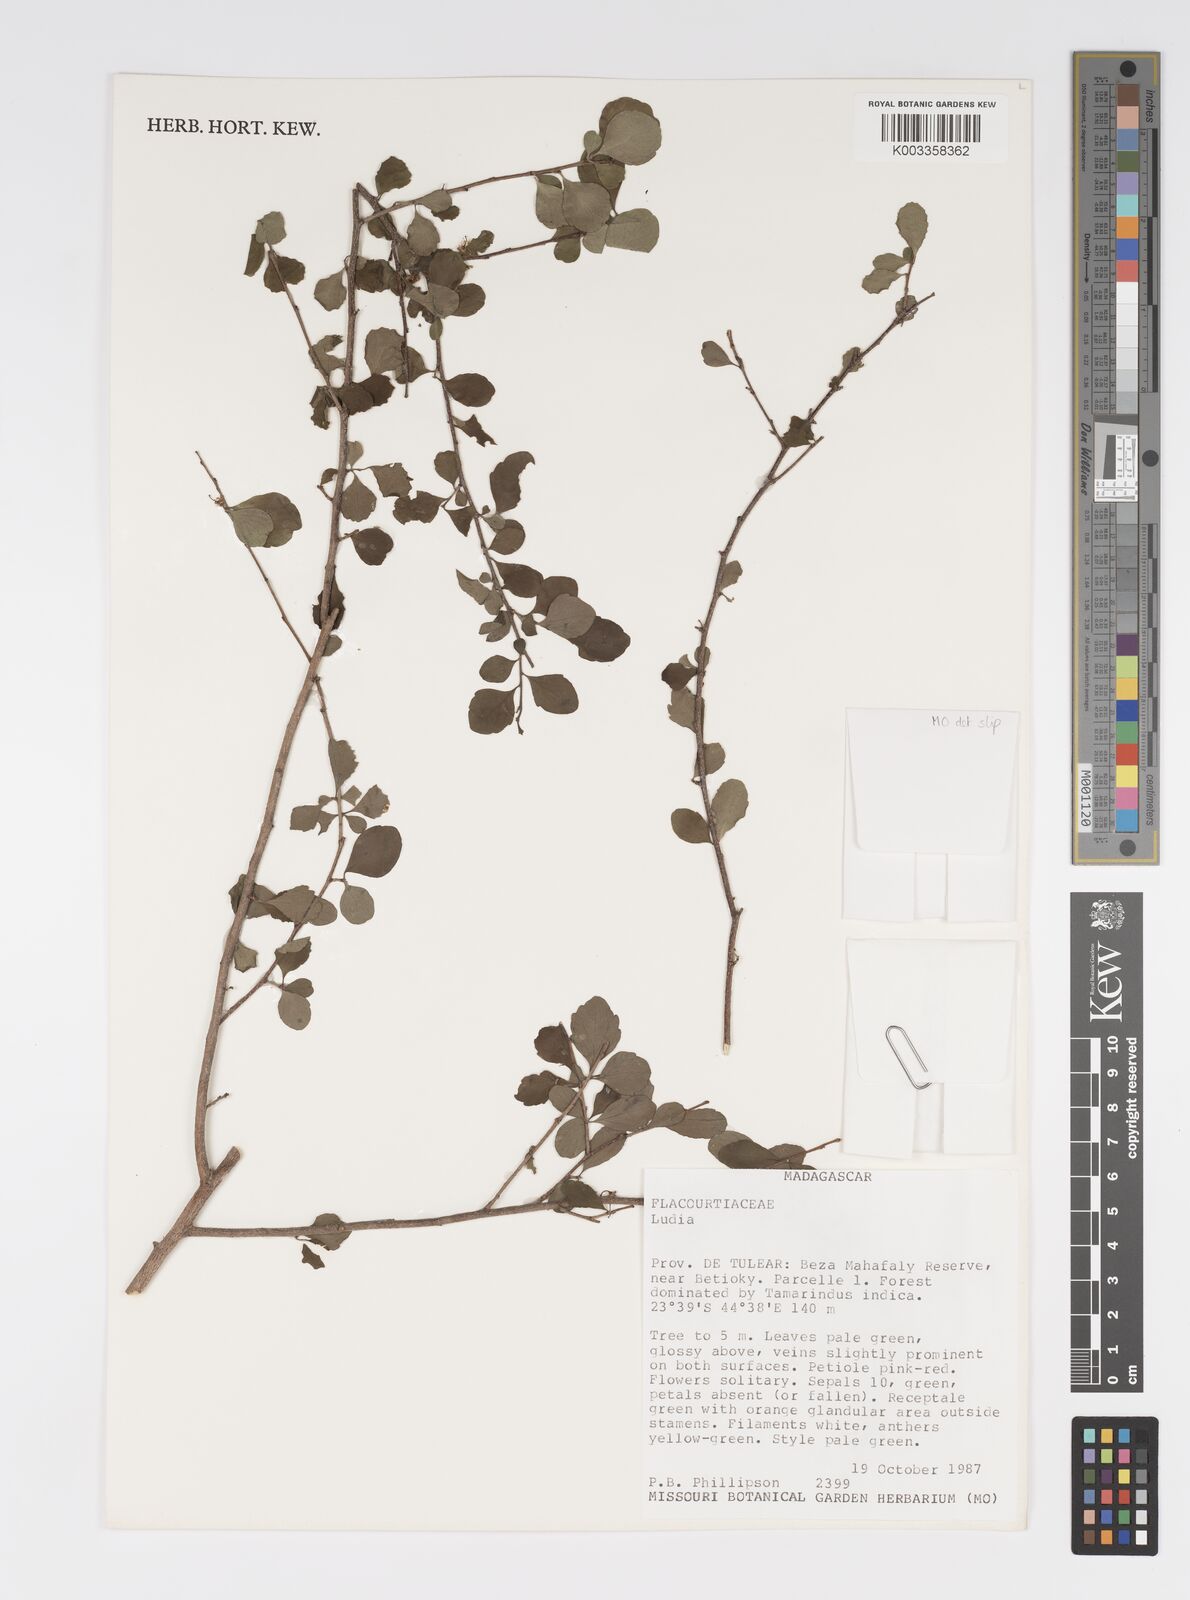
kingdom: Plantae
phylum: Tracheophyta
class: Magnoliopsida
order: Malpighiales
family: Salicaceae
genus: Ludia
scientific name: Ludia
